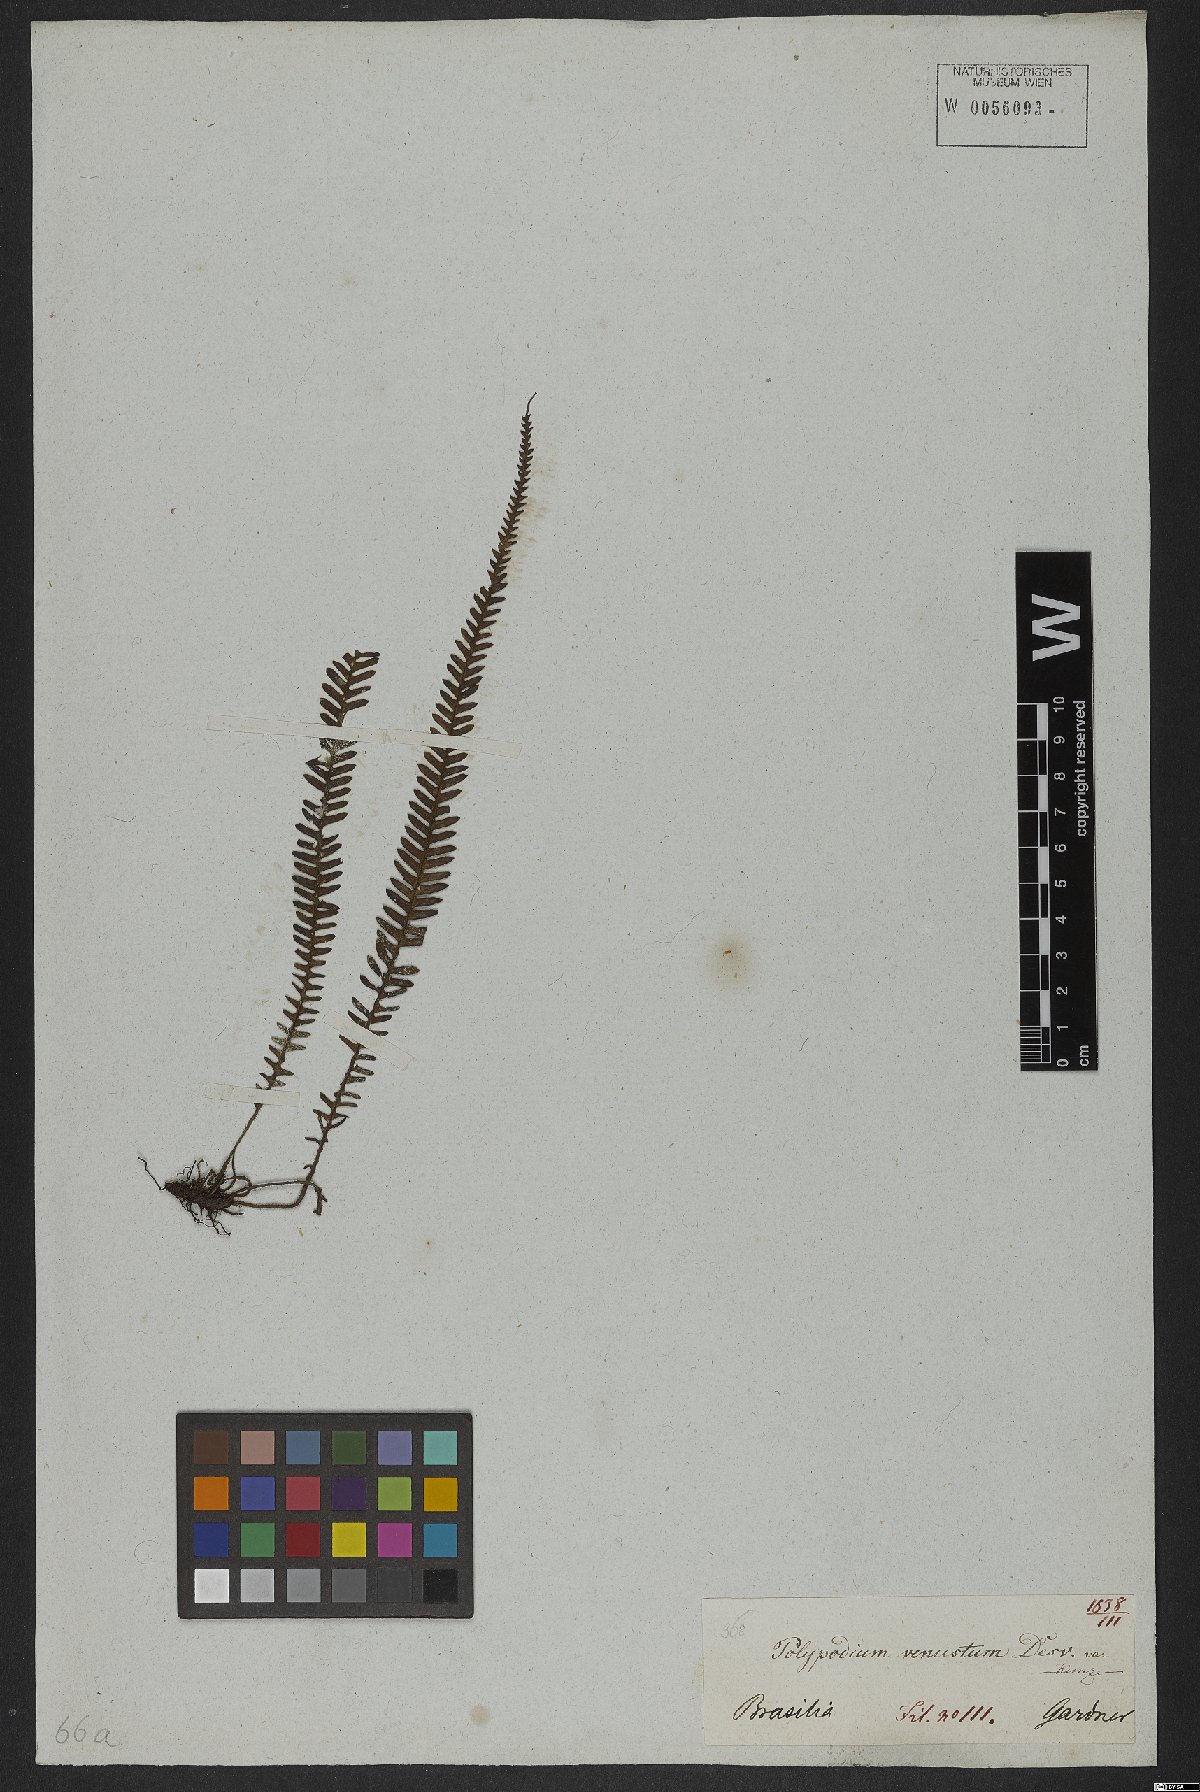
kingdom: Plantae
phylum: Tracheophyta
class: Polypodiopsida
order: Polypodiales
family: Polypodiaceae
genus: Mycopteris
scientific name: Mycopteris taxifolia
